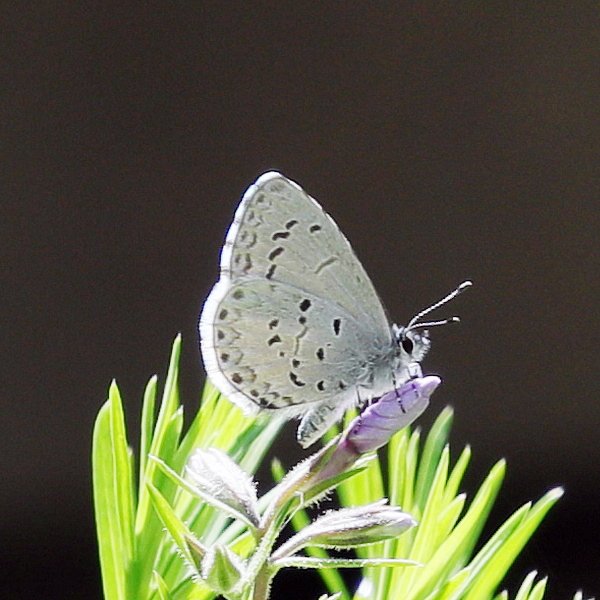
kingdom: Animalia
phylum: Arthropoda
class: Insecta
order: Lepidoptera
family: Lycaenidae
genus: Celastrina
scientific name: Celastrina lucia
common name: Northern Spring Azure
